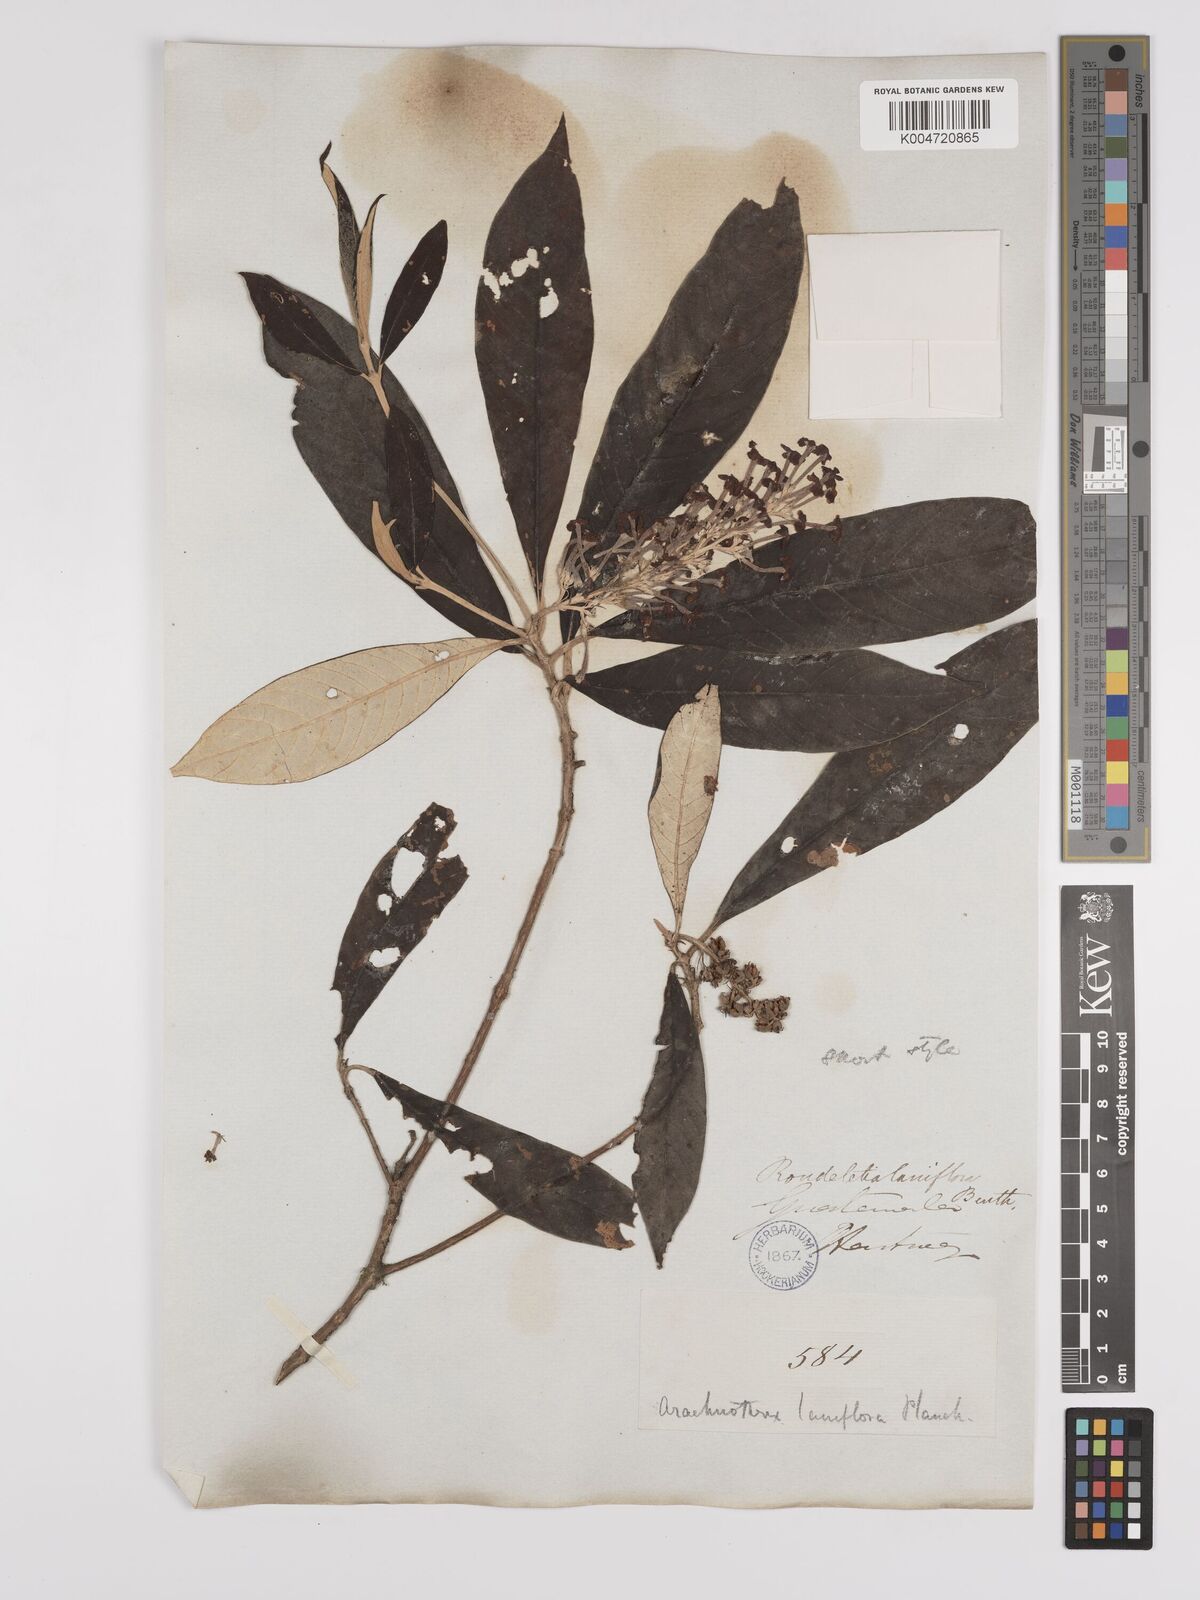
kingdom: Plantae
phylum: Tracheophyta
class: Magnoliopsida
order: Gentianales
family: Rubiaceae
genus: Arachnothryx
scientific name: Arachnothryx laniflora
